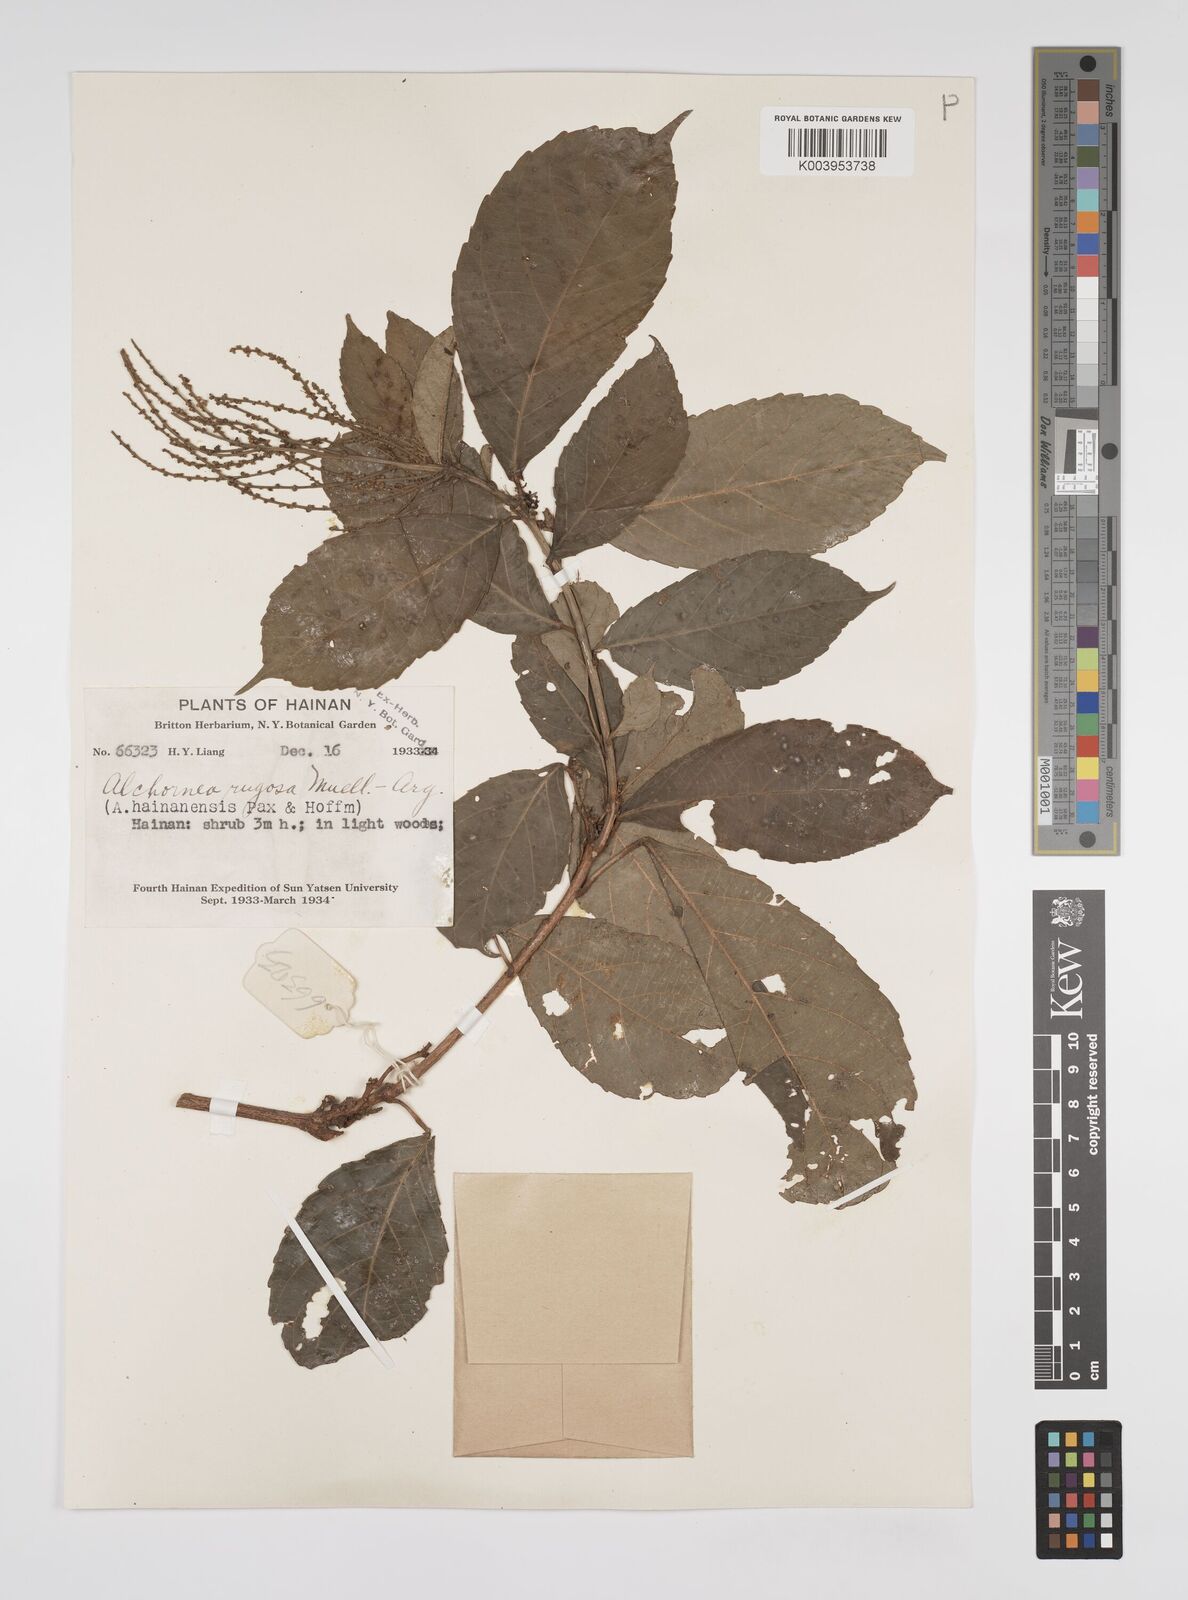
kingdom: Plantae
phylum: Tracheophyta
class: Magnoliopsida
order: Malpighiales
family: Euphorbiaceae
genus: Alchornea
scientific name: Alchornea rugosa
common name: Alchorntree
